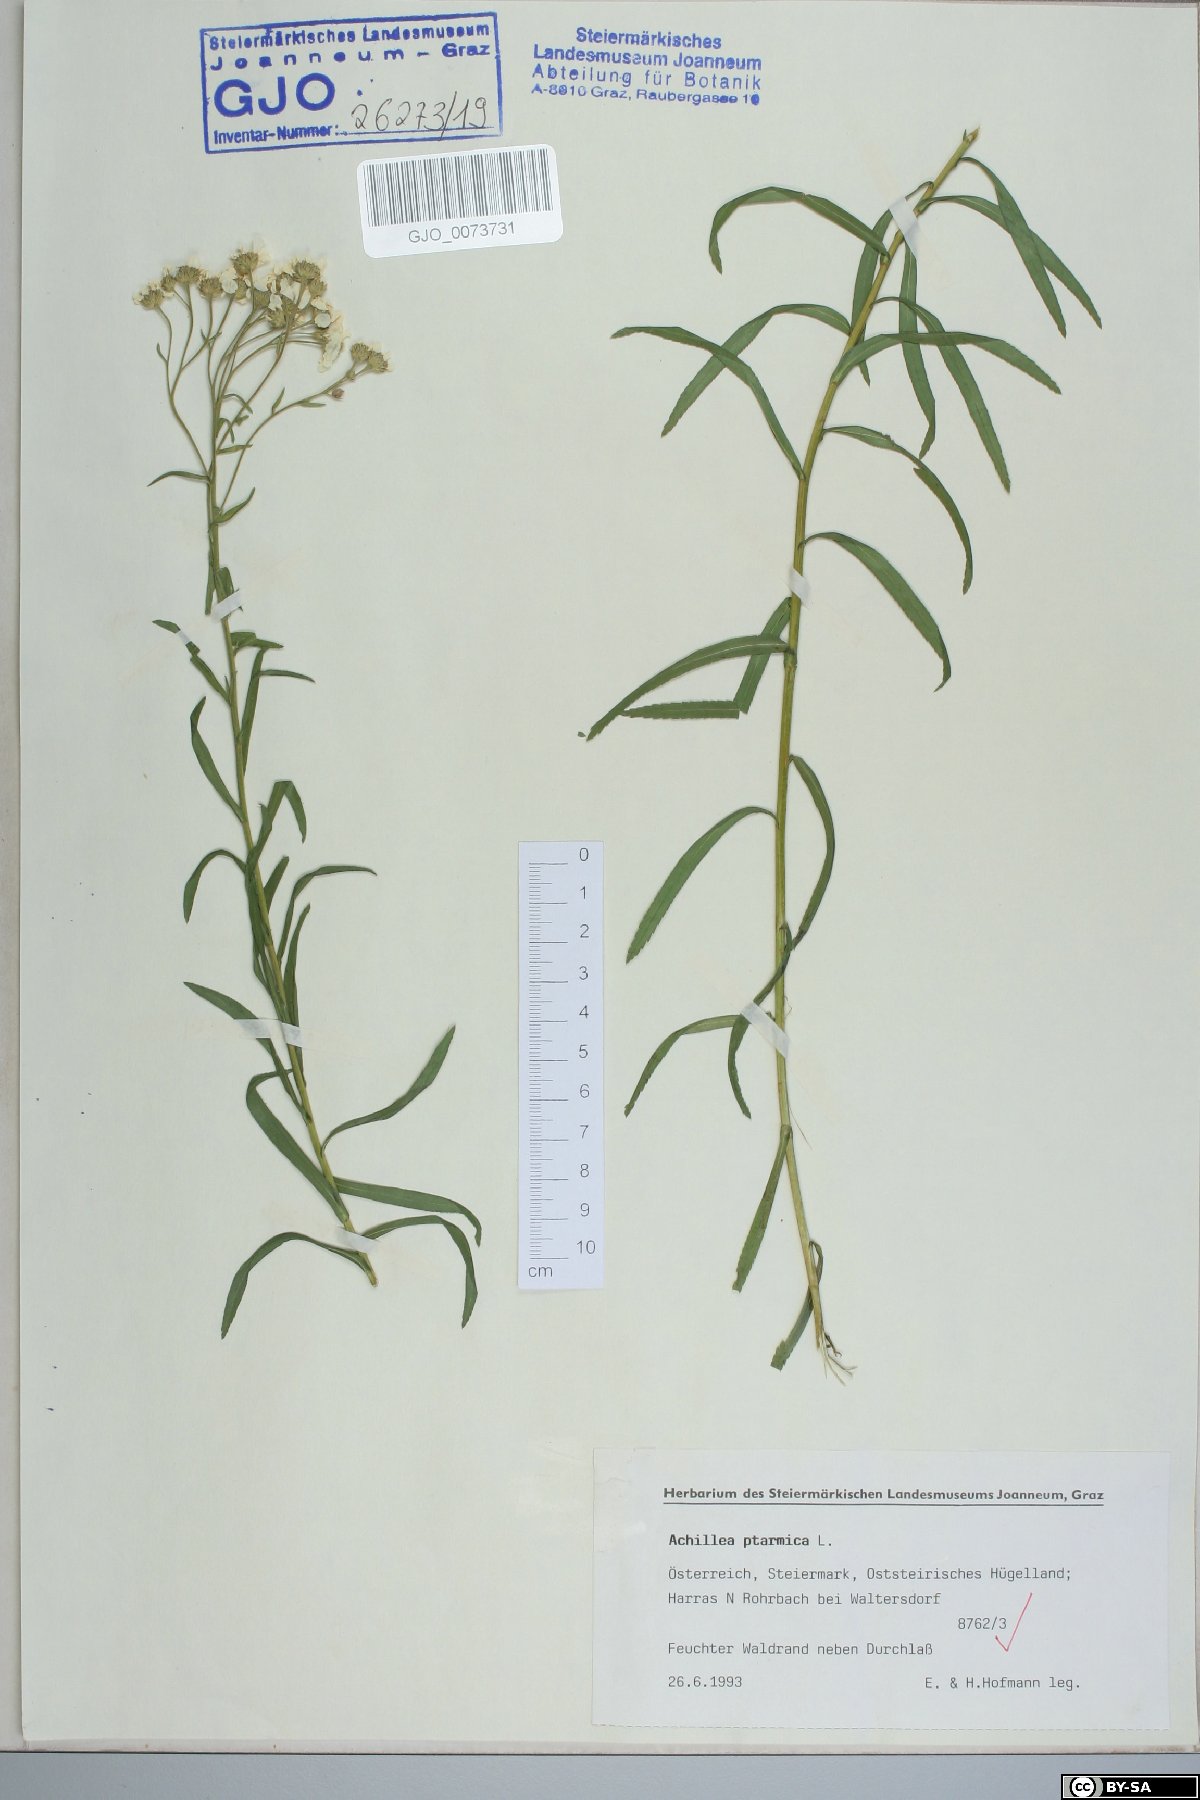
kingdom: Plantae
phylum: Tracheophyta
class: Magnoliopsida
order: Asterales
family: Asteraceae
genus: Achillea
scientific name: Achillea ptarmica
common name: Sneezeweed
